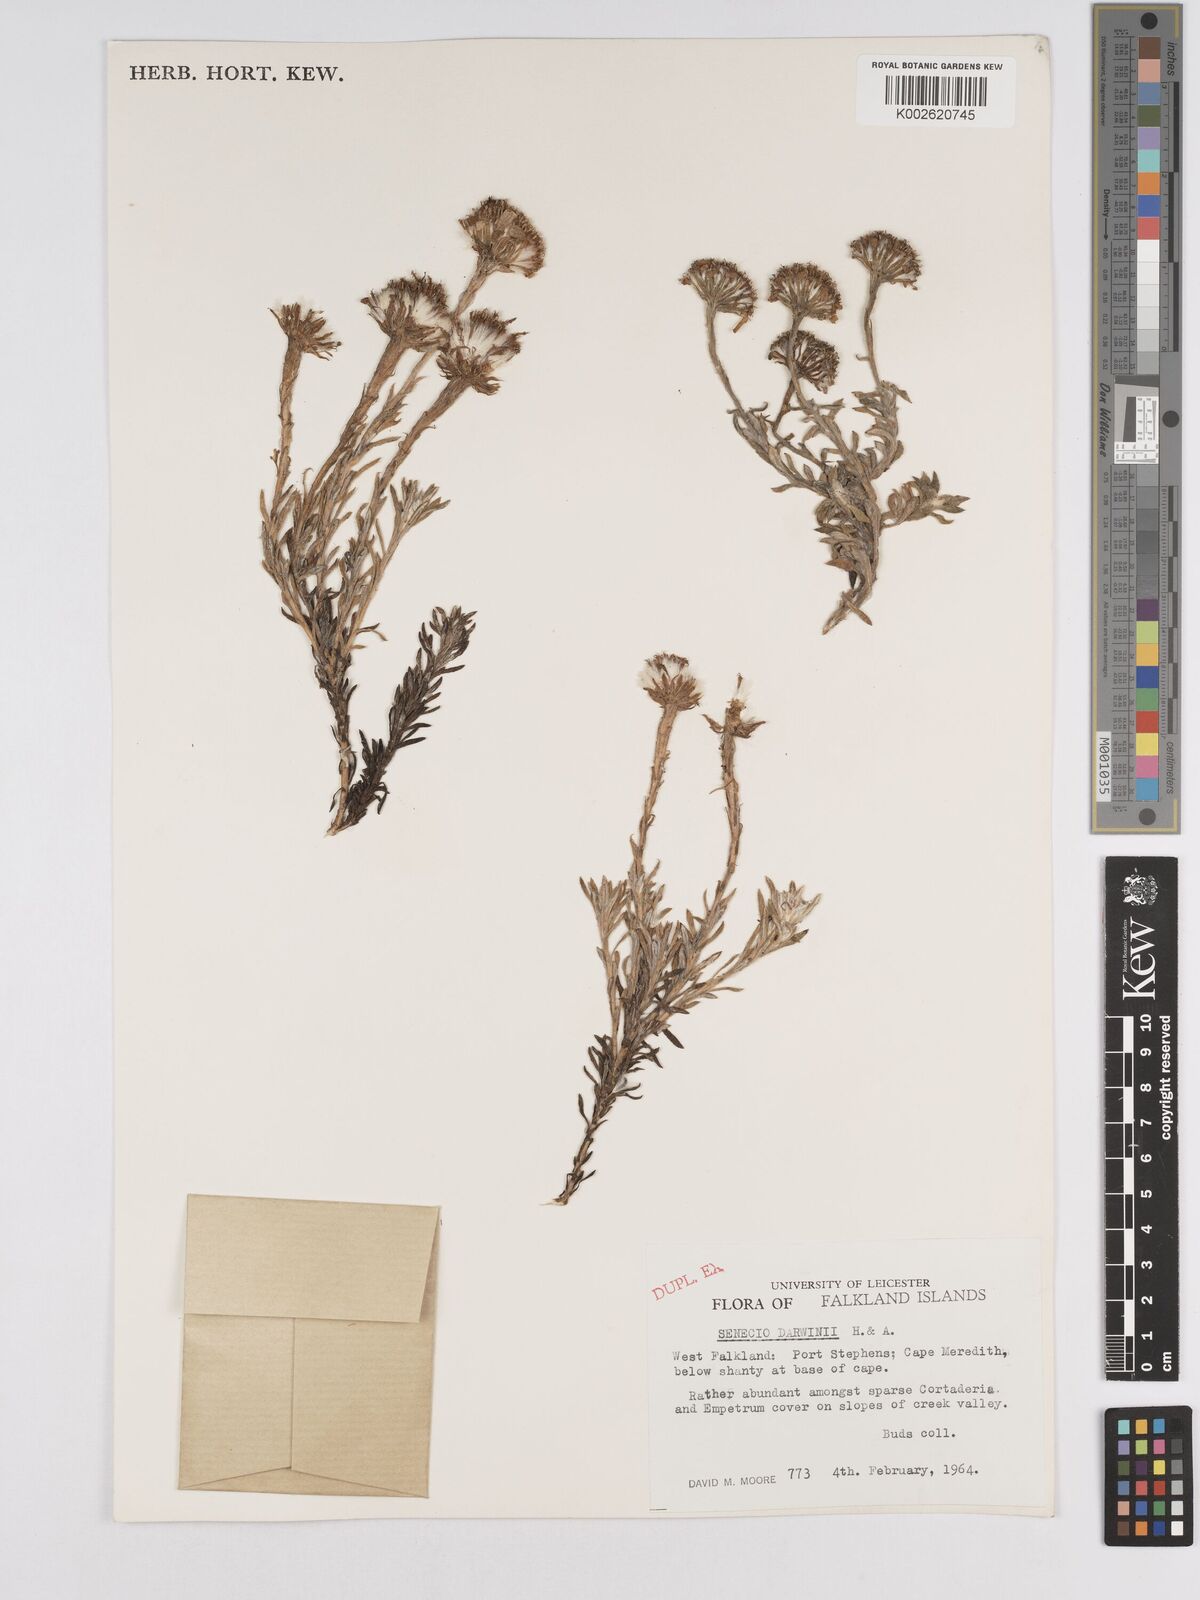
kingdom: Plantae
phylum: Tracheophyta
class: Magnoliopsida
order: Asterales
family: Asteraceae
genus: Senecio
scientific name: Senecio darwinii
